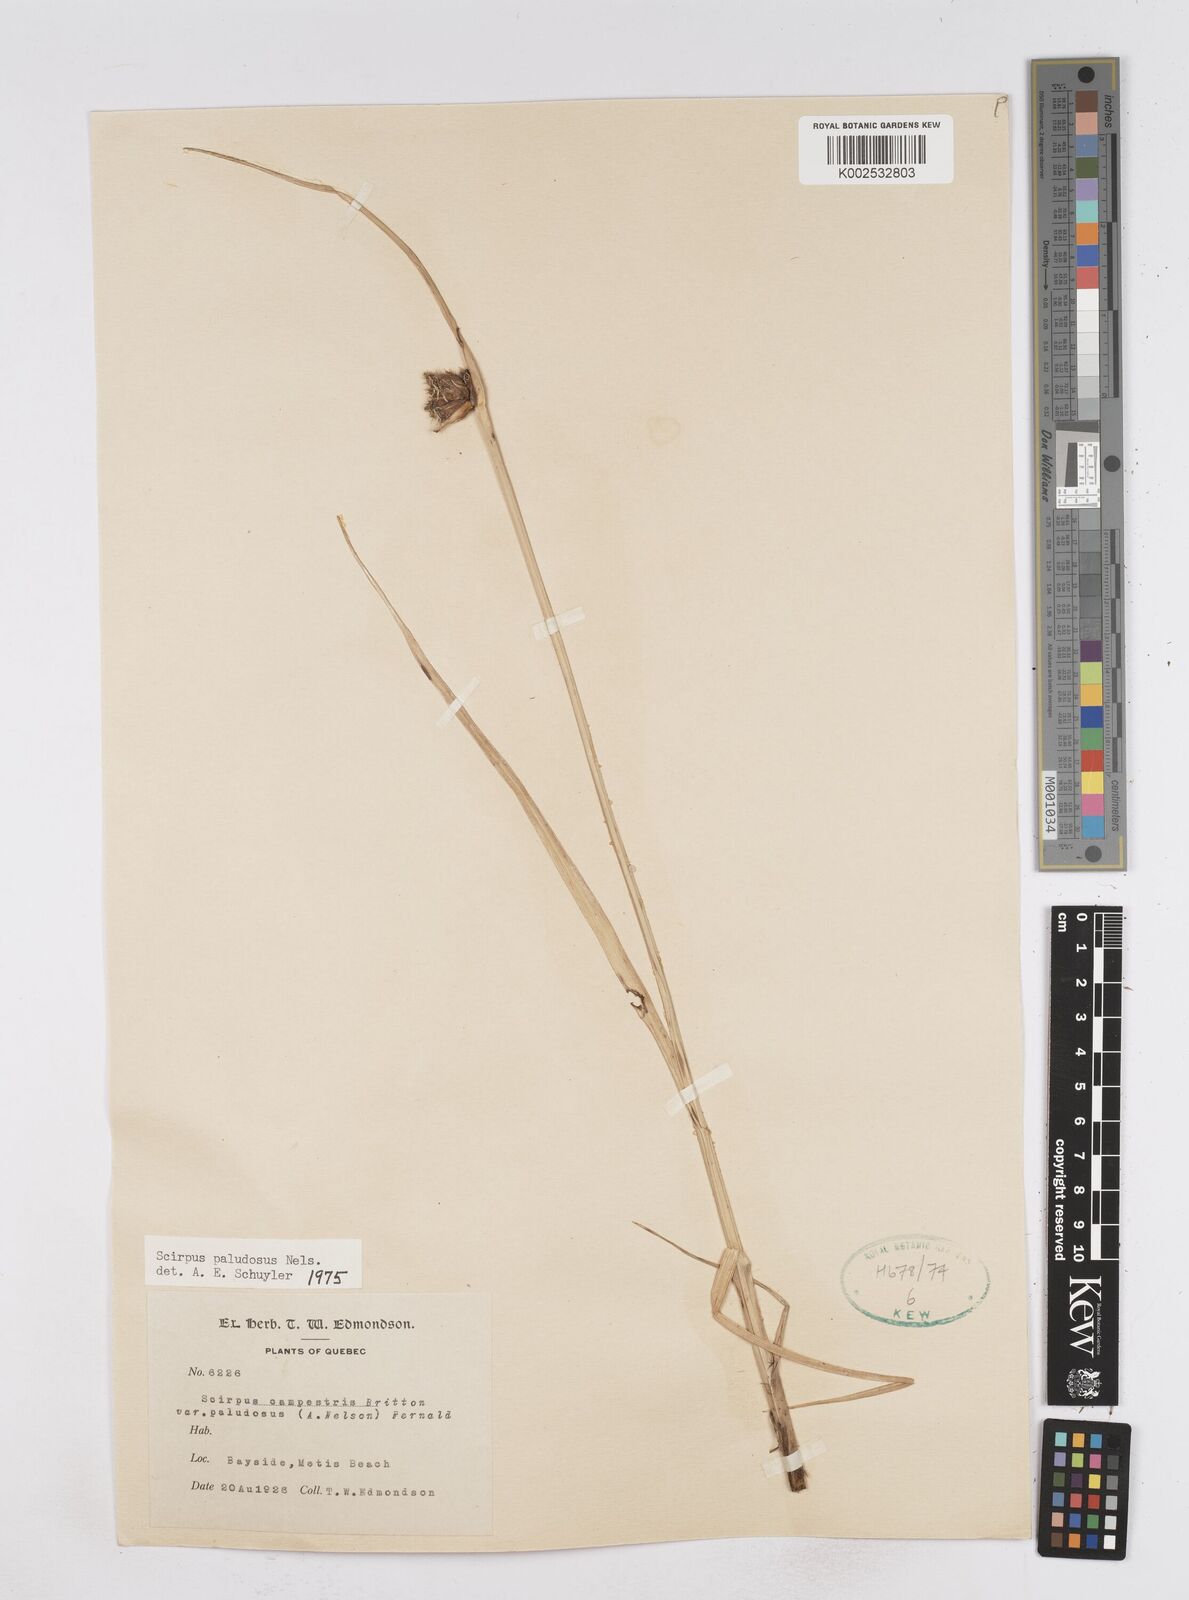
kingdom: Plantae
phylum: Tracheophyta
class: Liliopsida
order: Poales
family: Cyperaceae
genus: Bolboschoenus
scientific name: Bolboschoenus maritimus
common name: Sea club-rush
